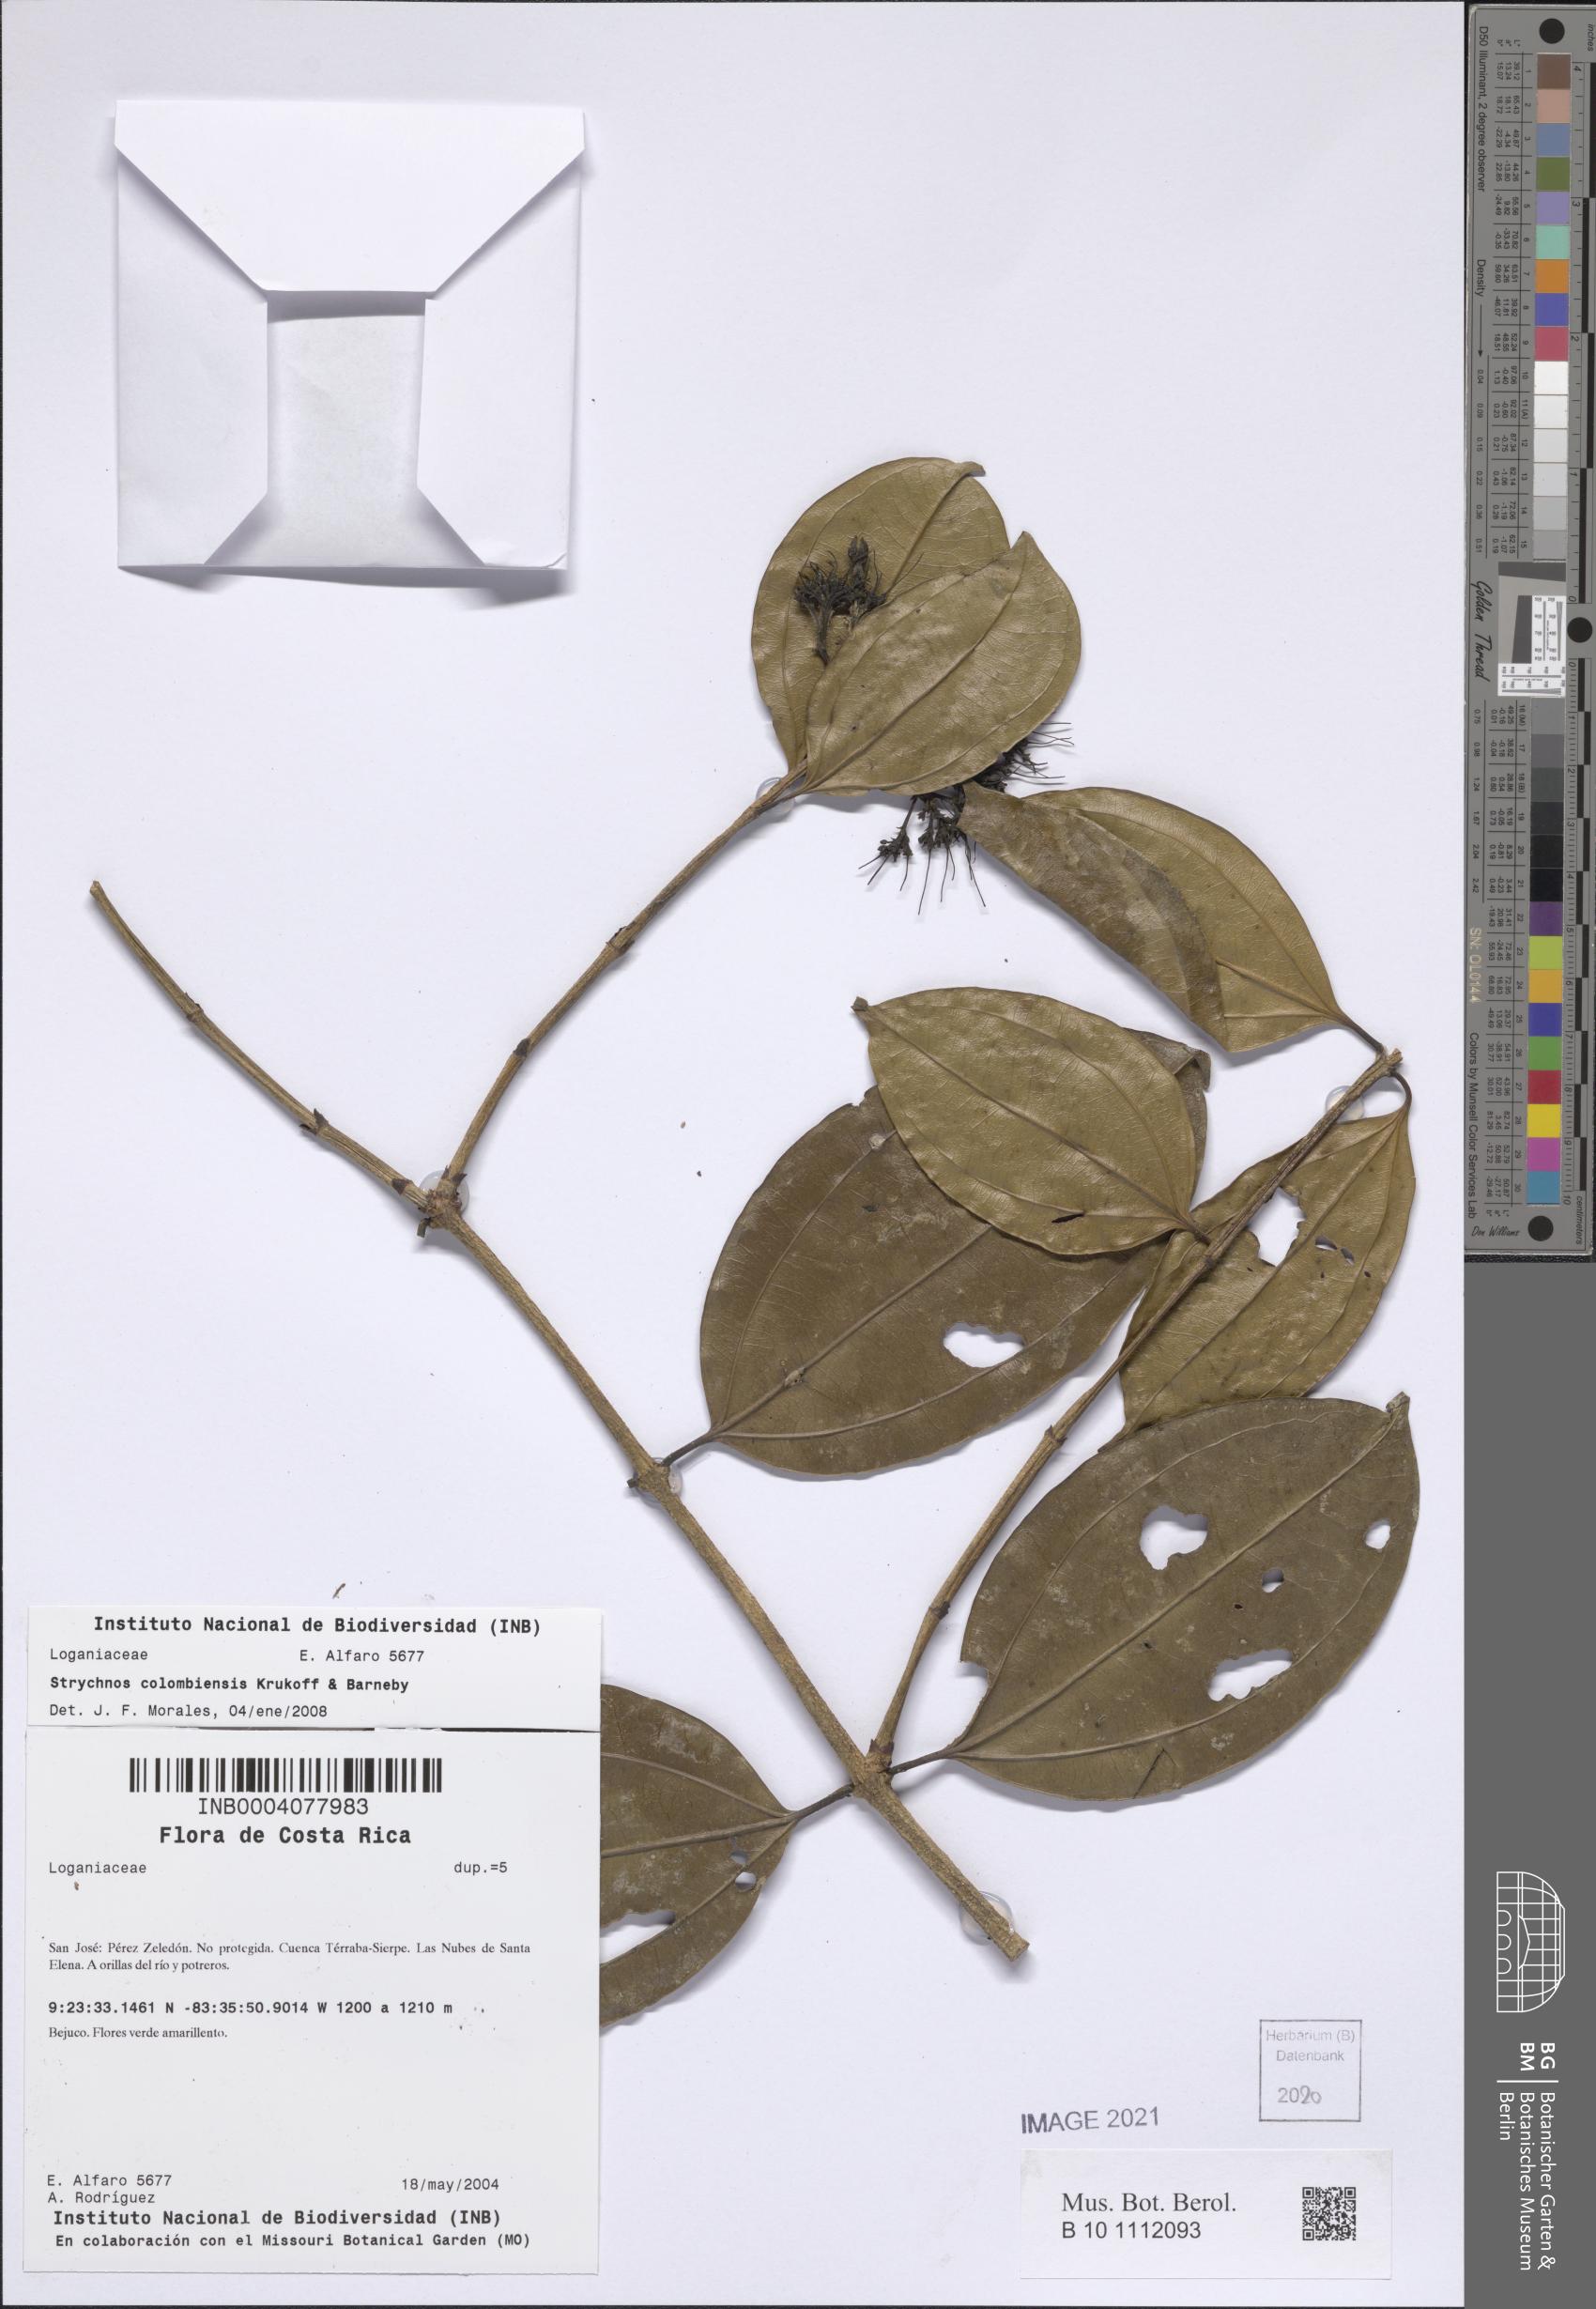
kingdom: Plantae
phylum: Tracheophyta
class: Magnoliopsida
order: Gentianales
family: Loganiaceae
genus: Strychnos
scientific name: Strychnos colombiensis
